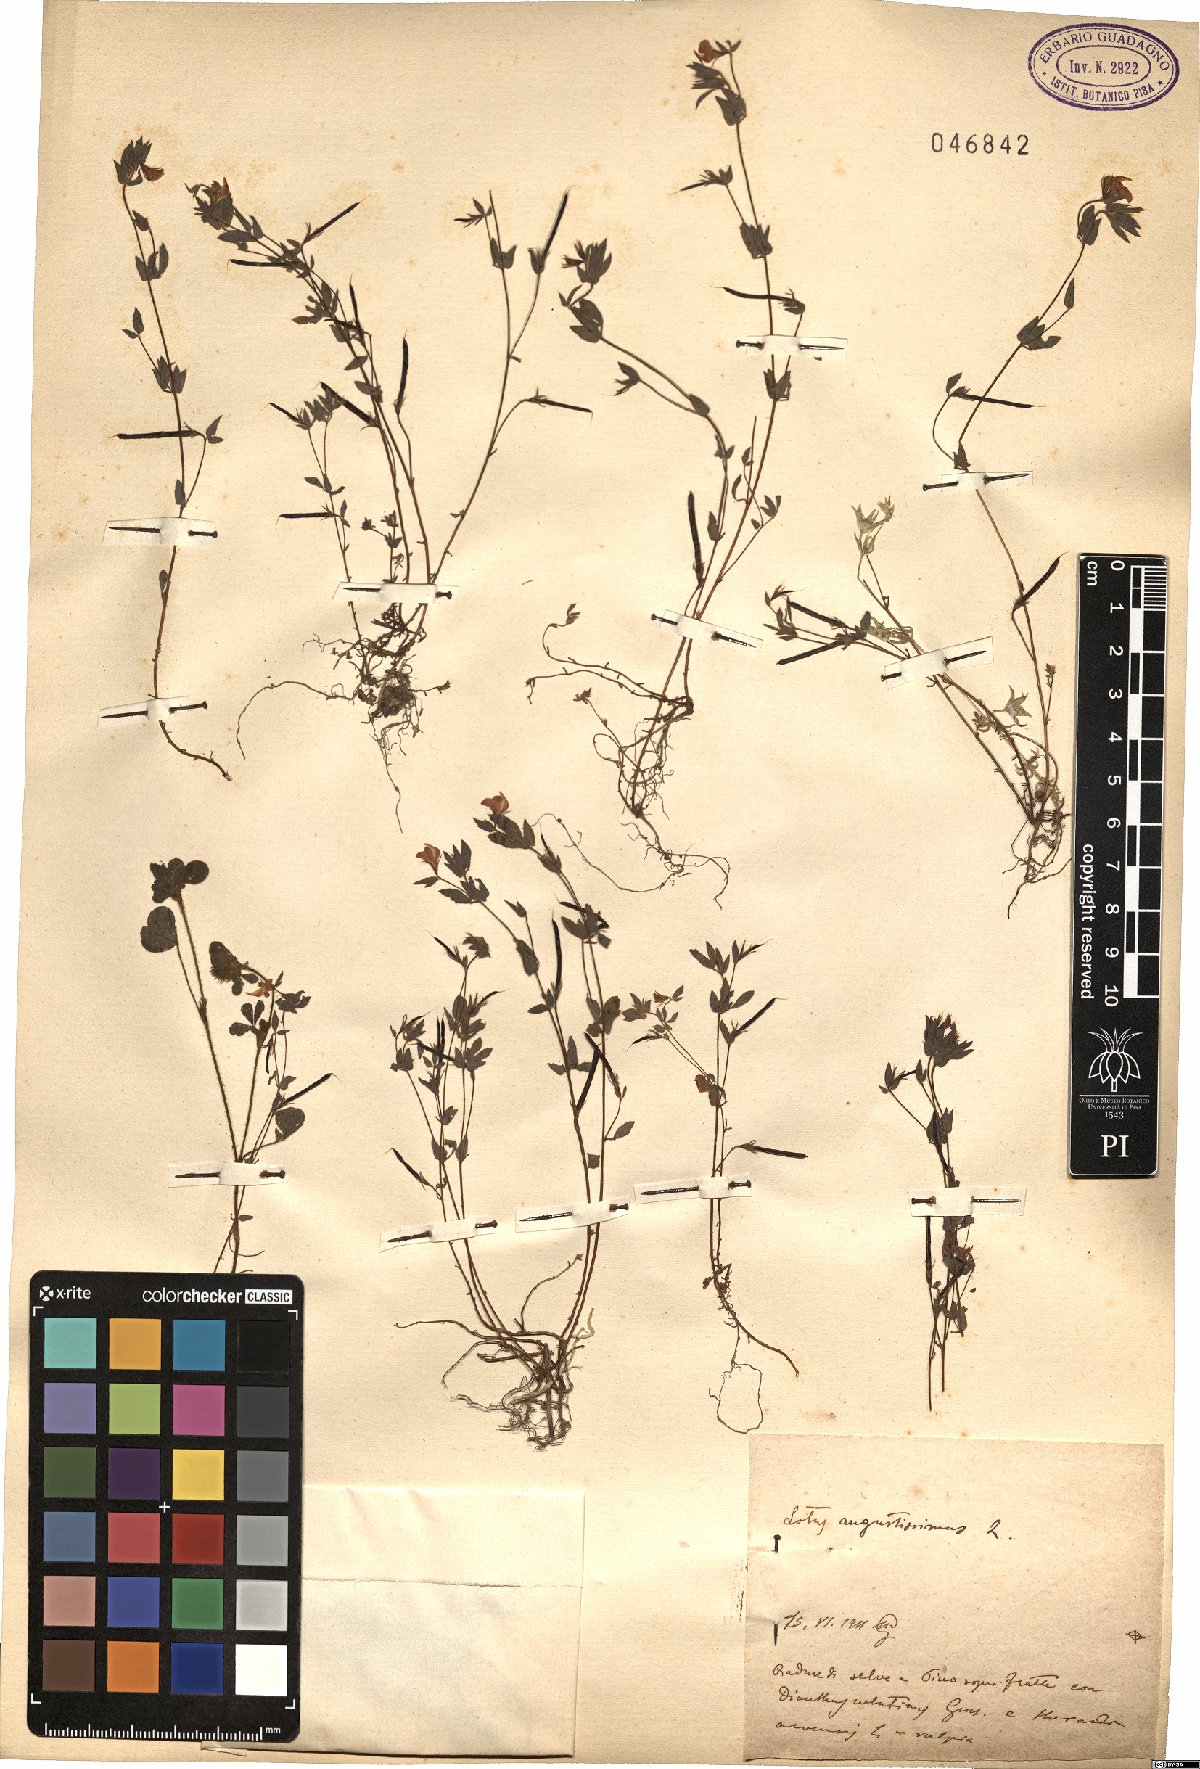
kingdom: Plantae
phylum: Tracheophyta
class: Magnoliopsida
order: Fabales
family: Fabaceae
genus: Lotus
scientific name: Lotus angustissimus
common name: Slender bird's-foot trefoil
